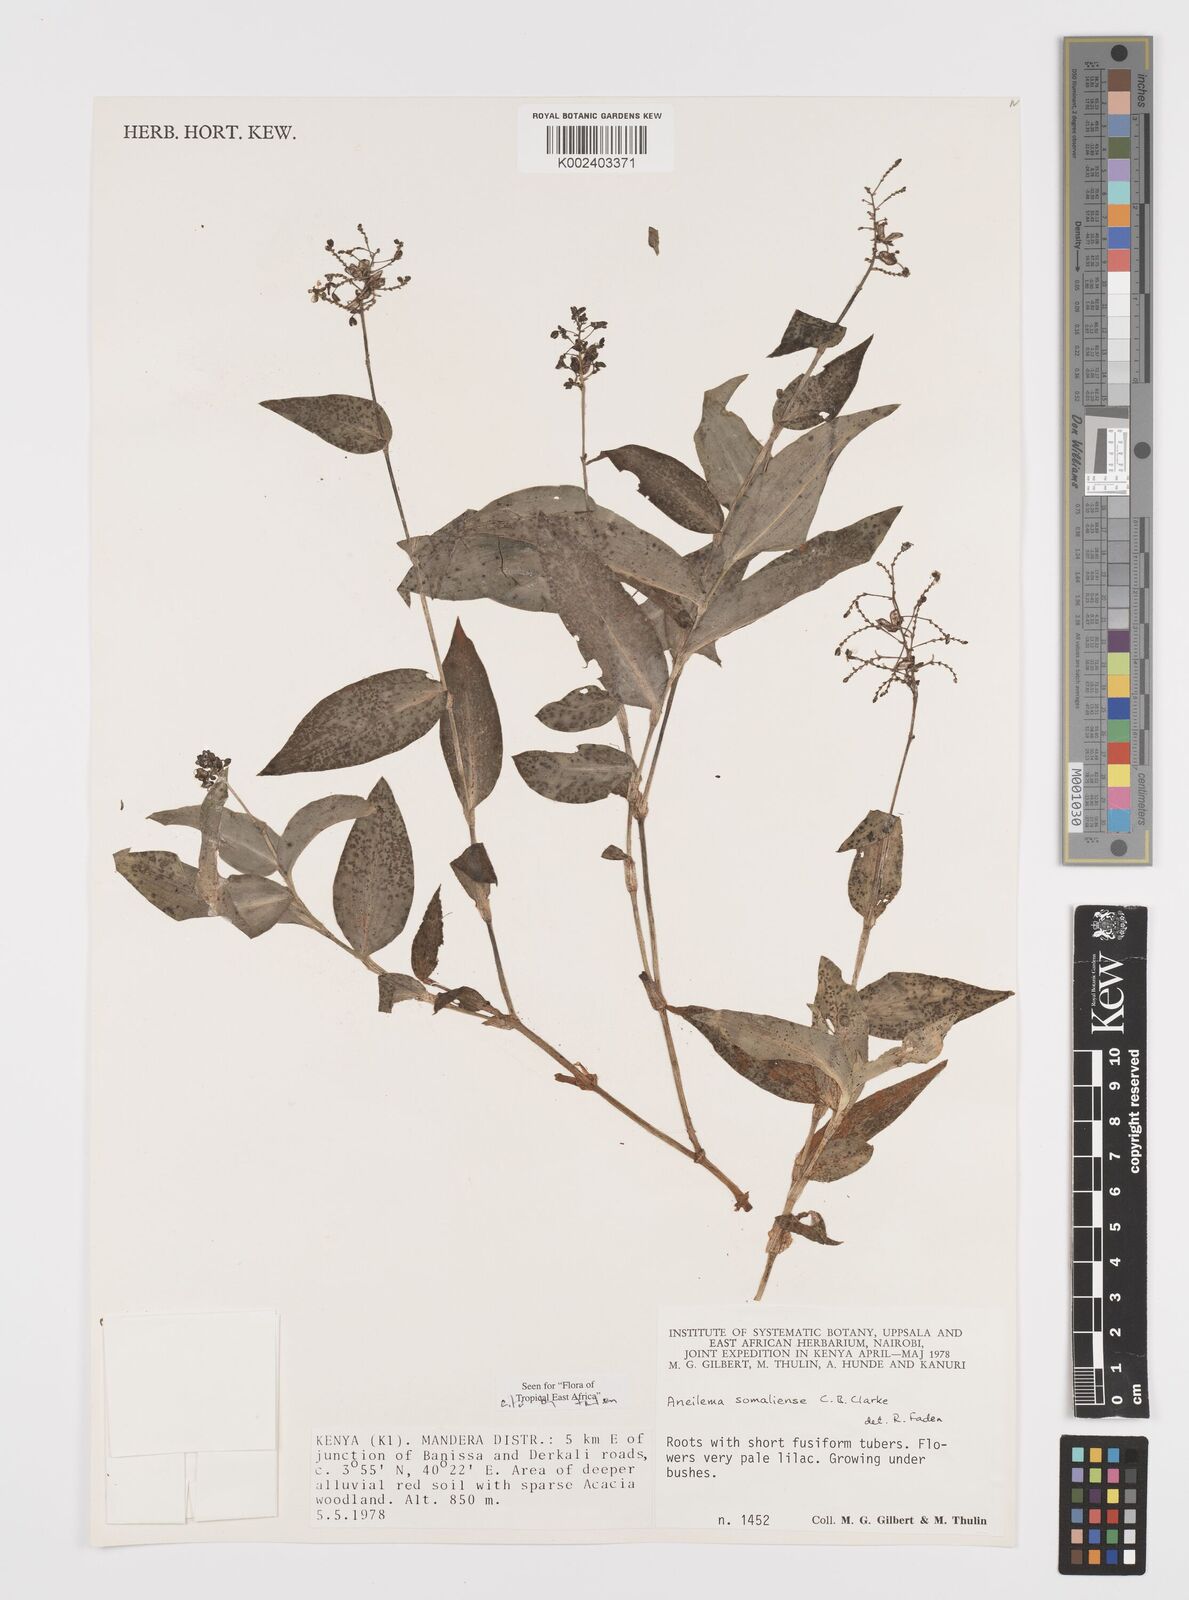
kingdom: Plantae
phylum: Tracheophyta
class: Liliopsida
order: Commelinales
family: Commelinaceae
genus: Aneilema
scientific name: Aneilema somaliense
